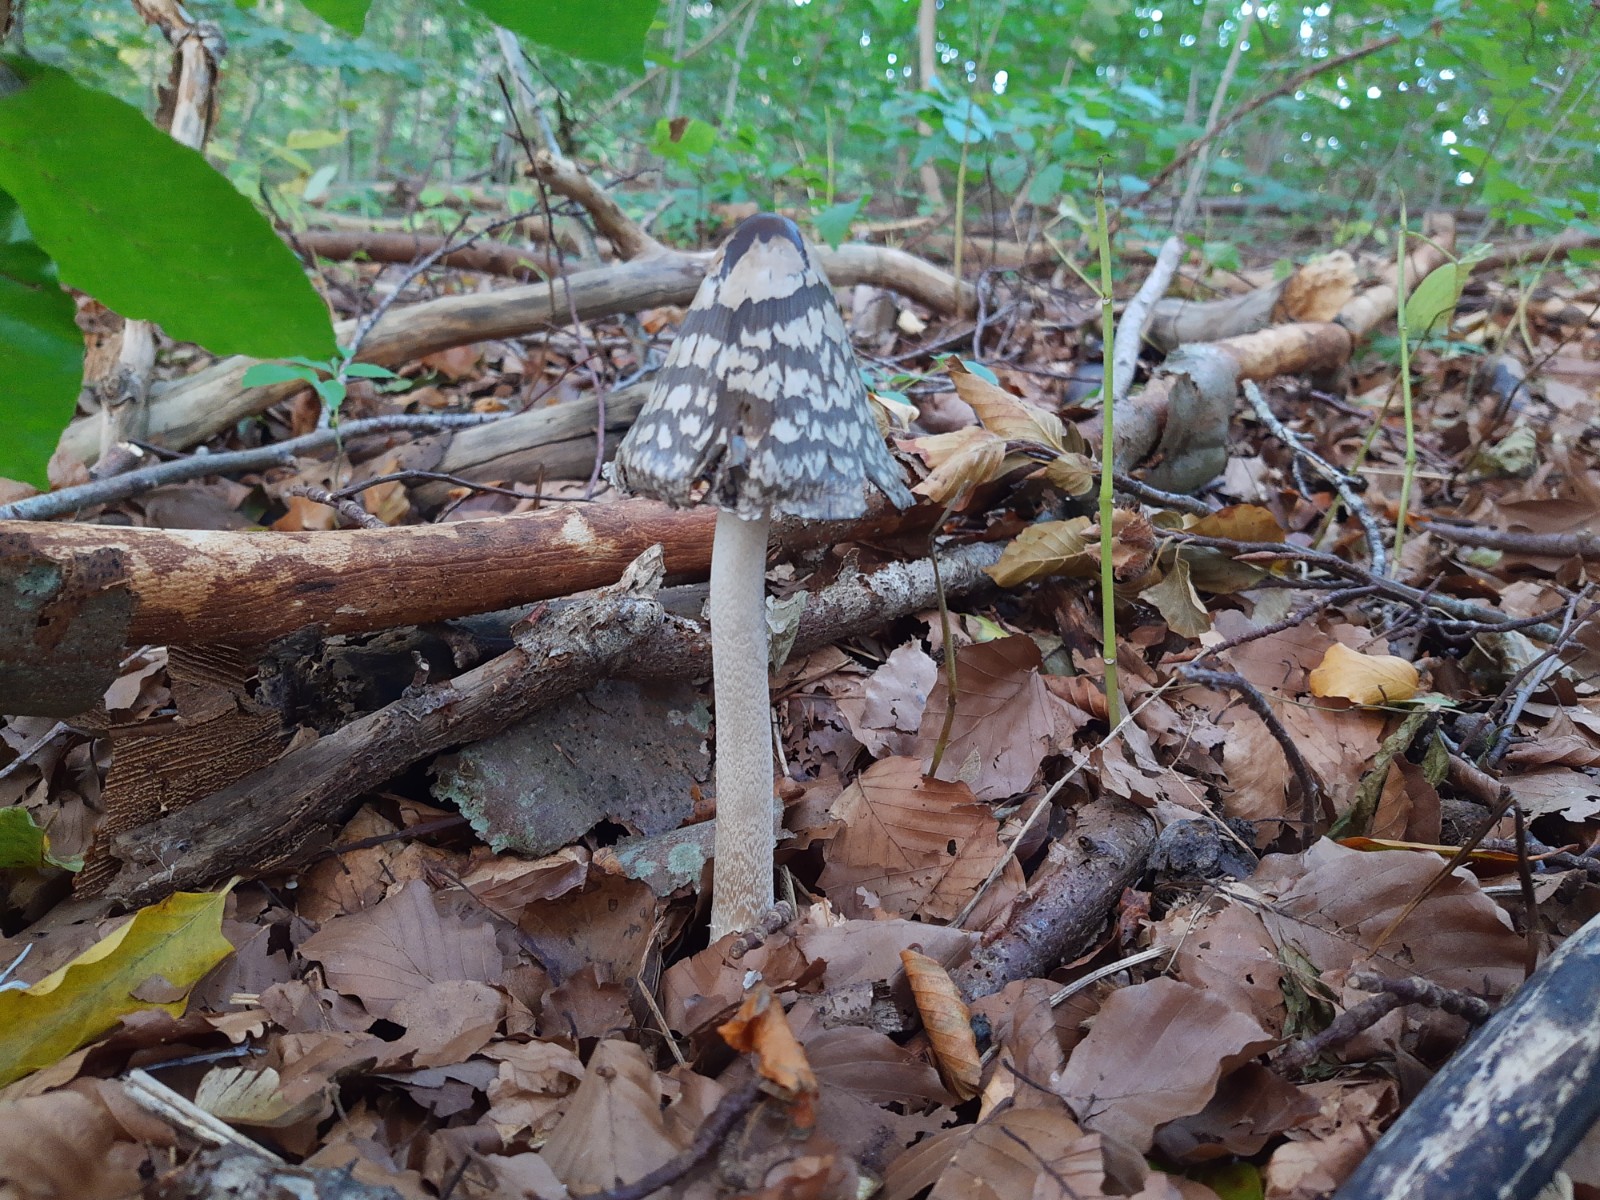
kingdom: Fungi
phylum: Basidiomycota
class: Agaricomycetes
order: Agaricales
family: Psathyrellaceae
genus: Coprinopsis
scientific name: Coprinopsis picacea
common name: skade-blækhat
